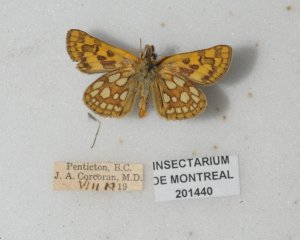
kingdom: Animalia
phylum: Arthropoda
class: Insecta
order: Lepidoptera
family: Hesperiidae
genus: Carterocephalus
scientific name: Carterocephalus palaemon
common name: Chequered Skipper
